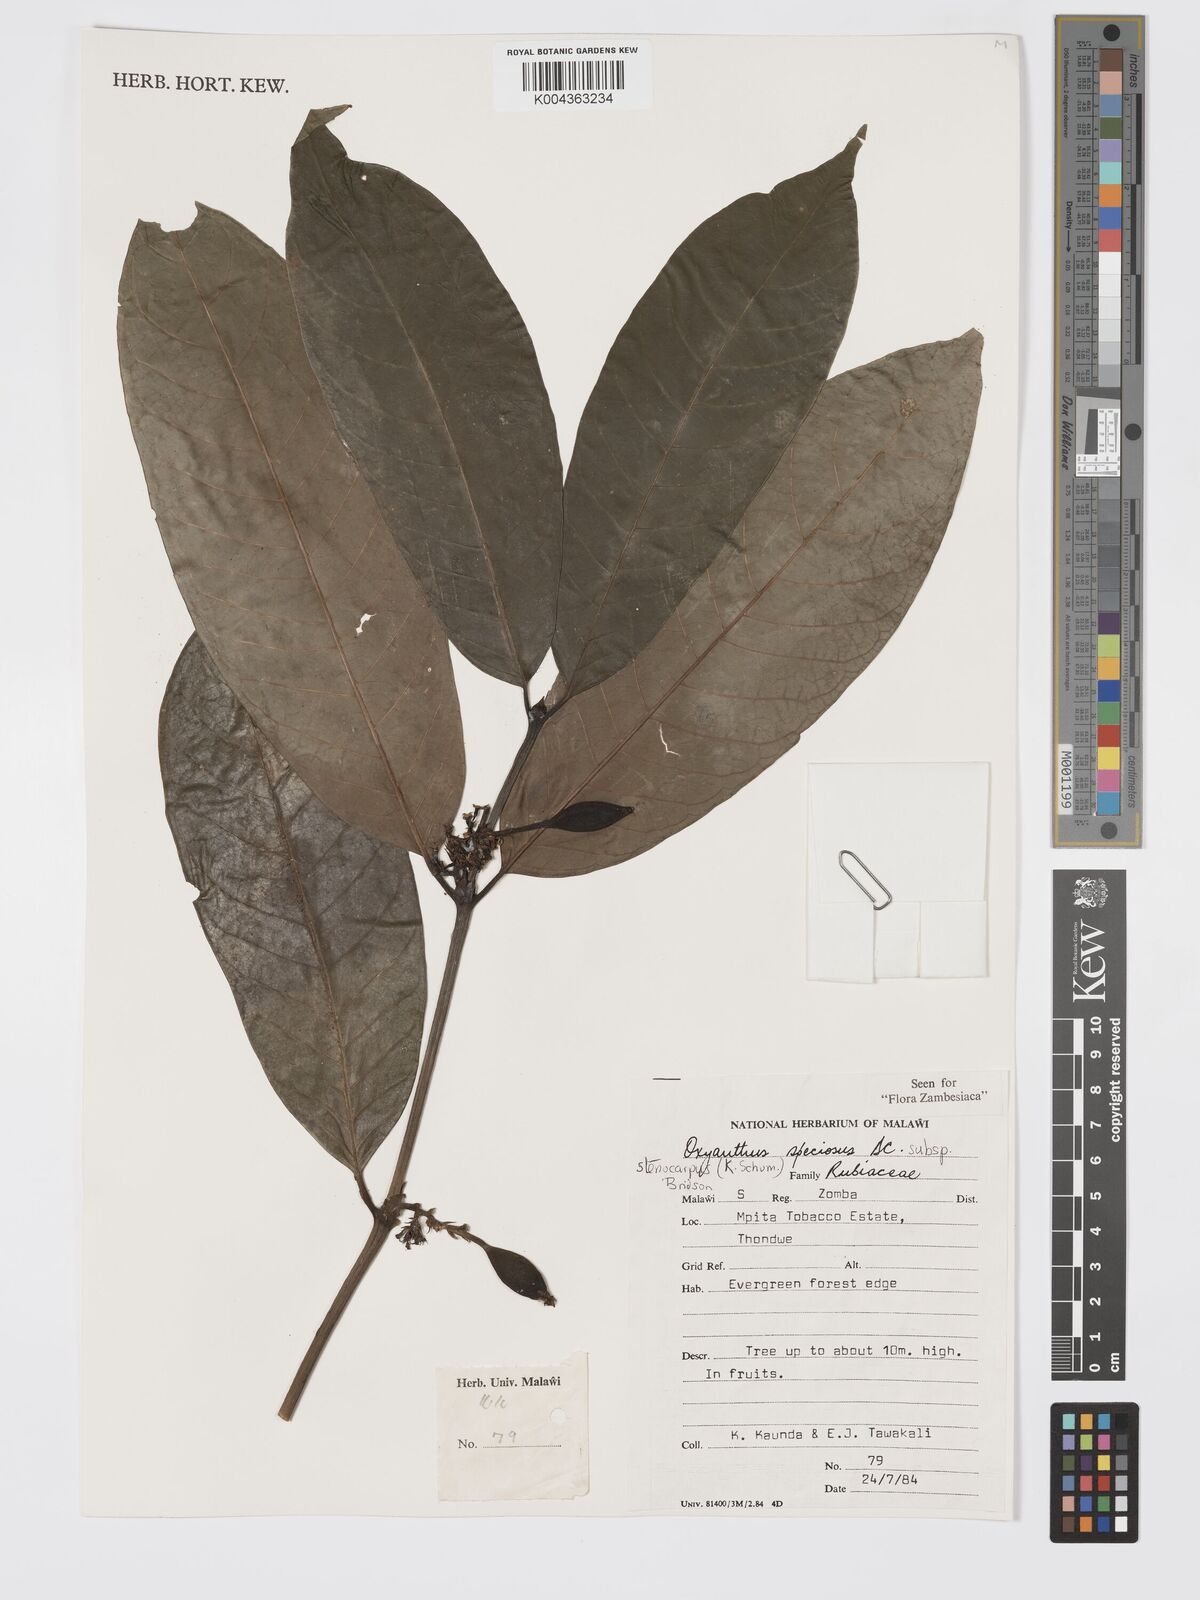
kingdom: Plantae
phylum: Tracheophyta
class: Magnoliopsida
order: Gentianales
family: Rubiaceae
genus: Oxyanthus
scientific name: Oxyanthus speciosus
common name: Whipstick loquat
